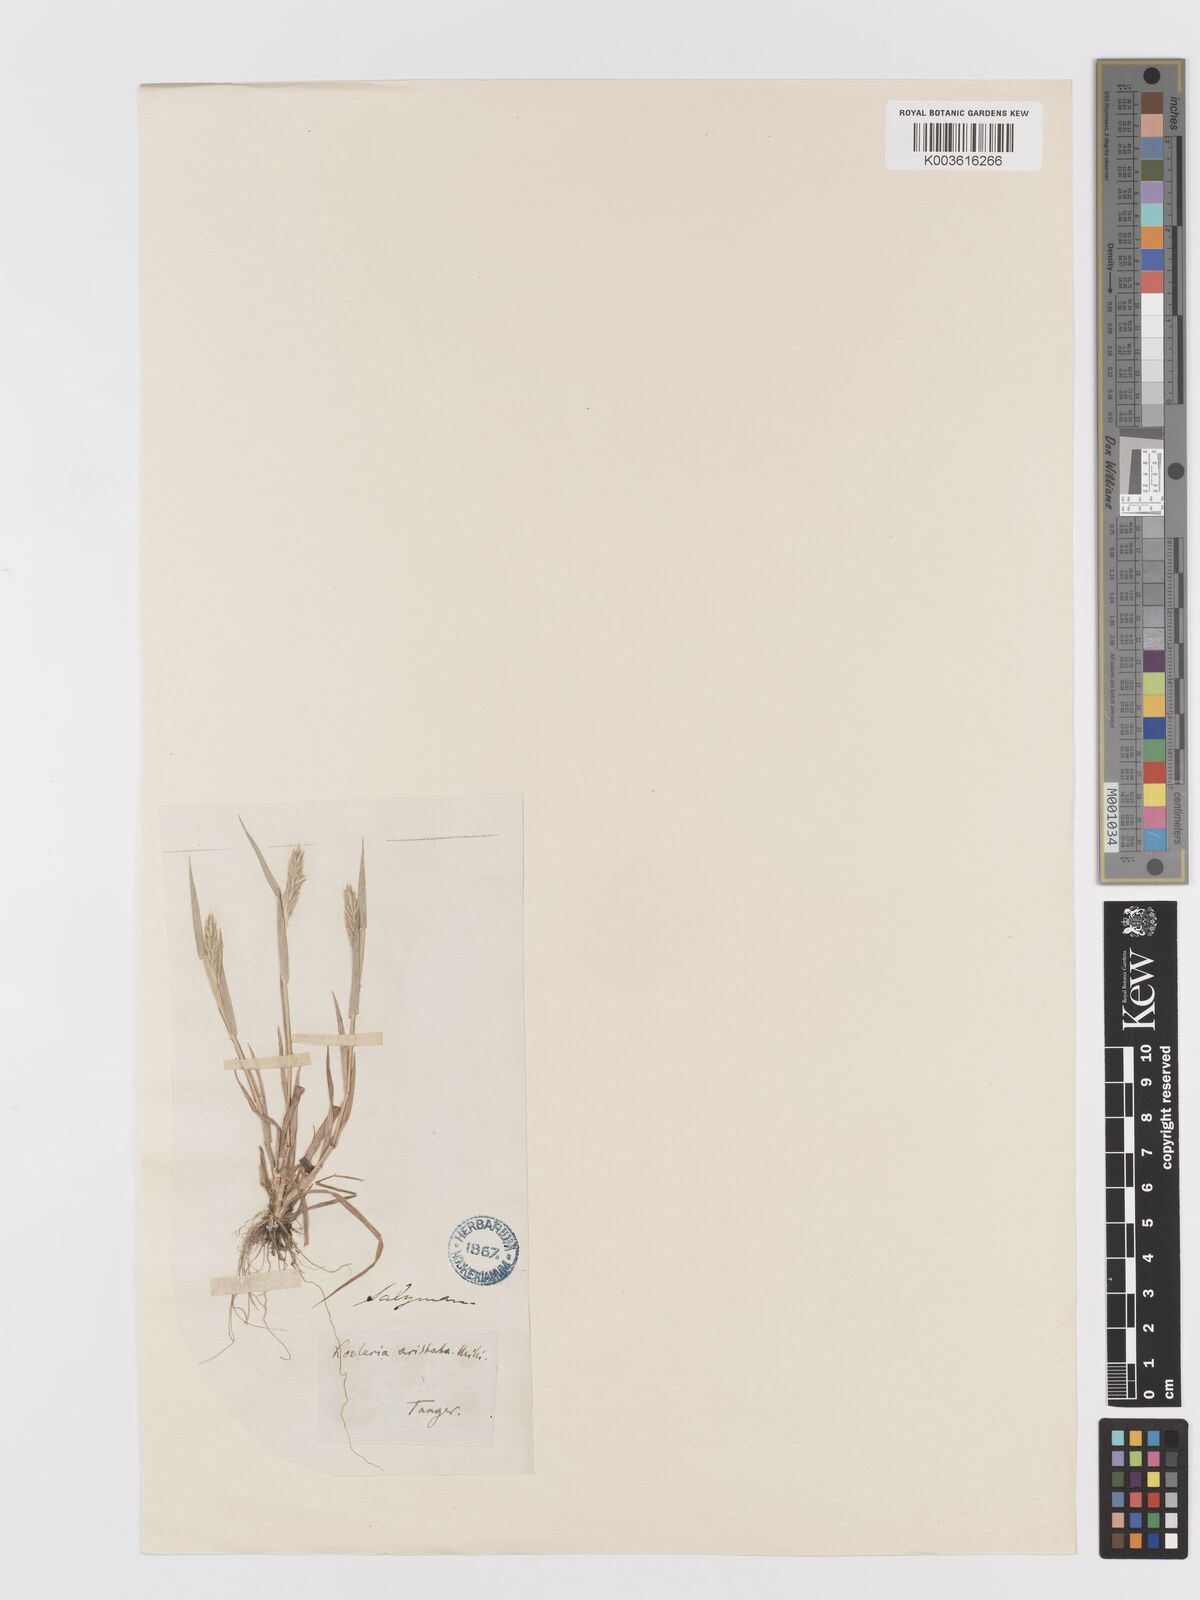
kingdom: Plantae
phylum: Tracheophyta
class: Liliopsida
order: Poales
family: Poaceae
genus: Trisetaria
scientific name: Trisetaria
